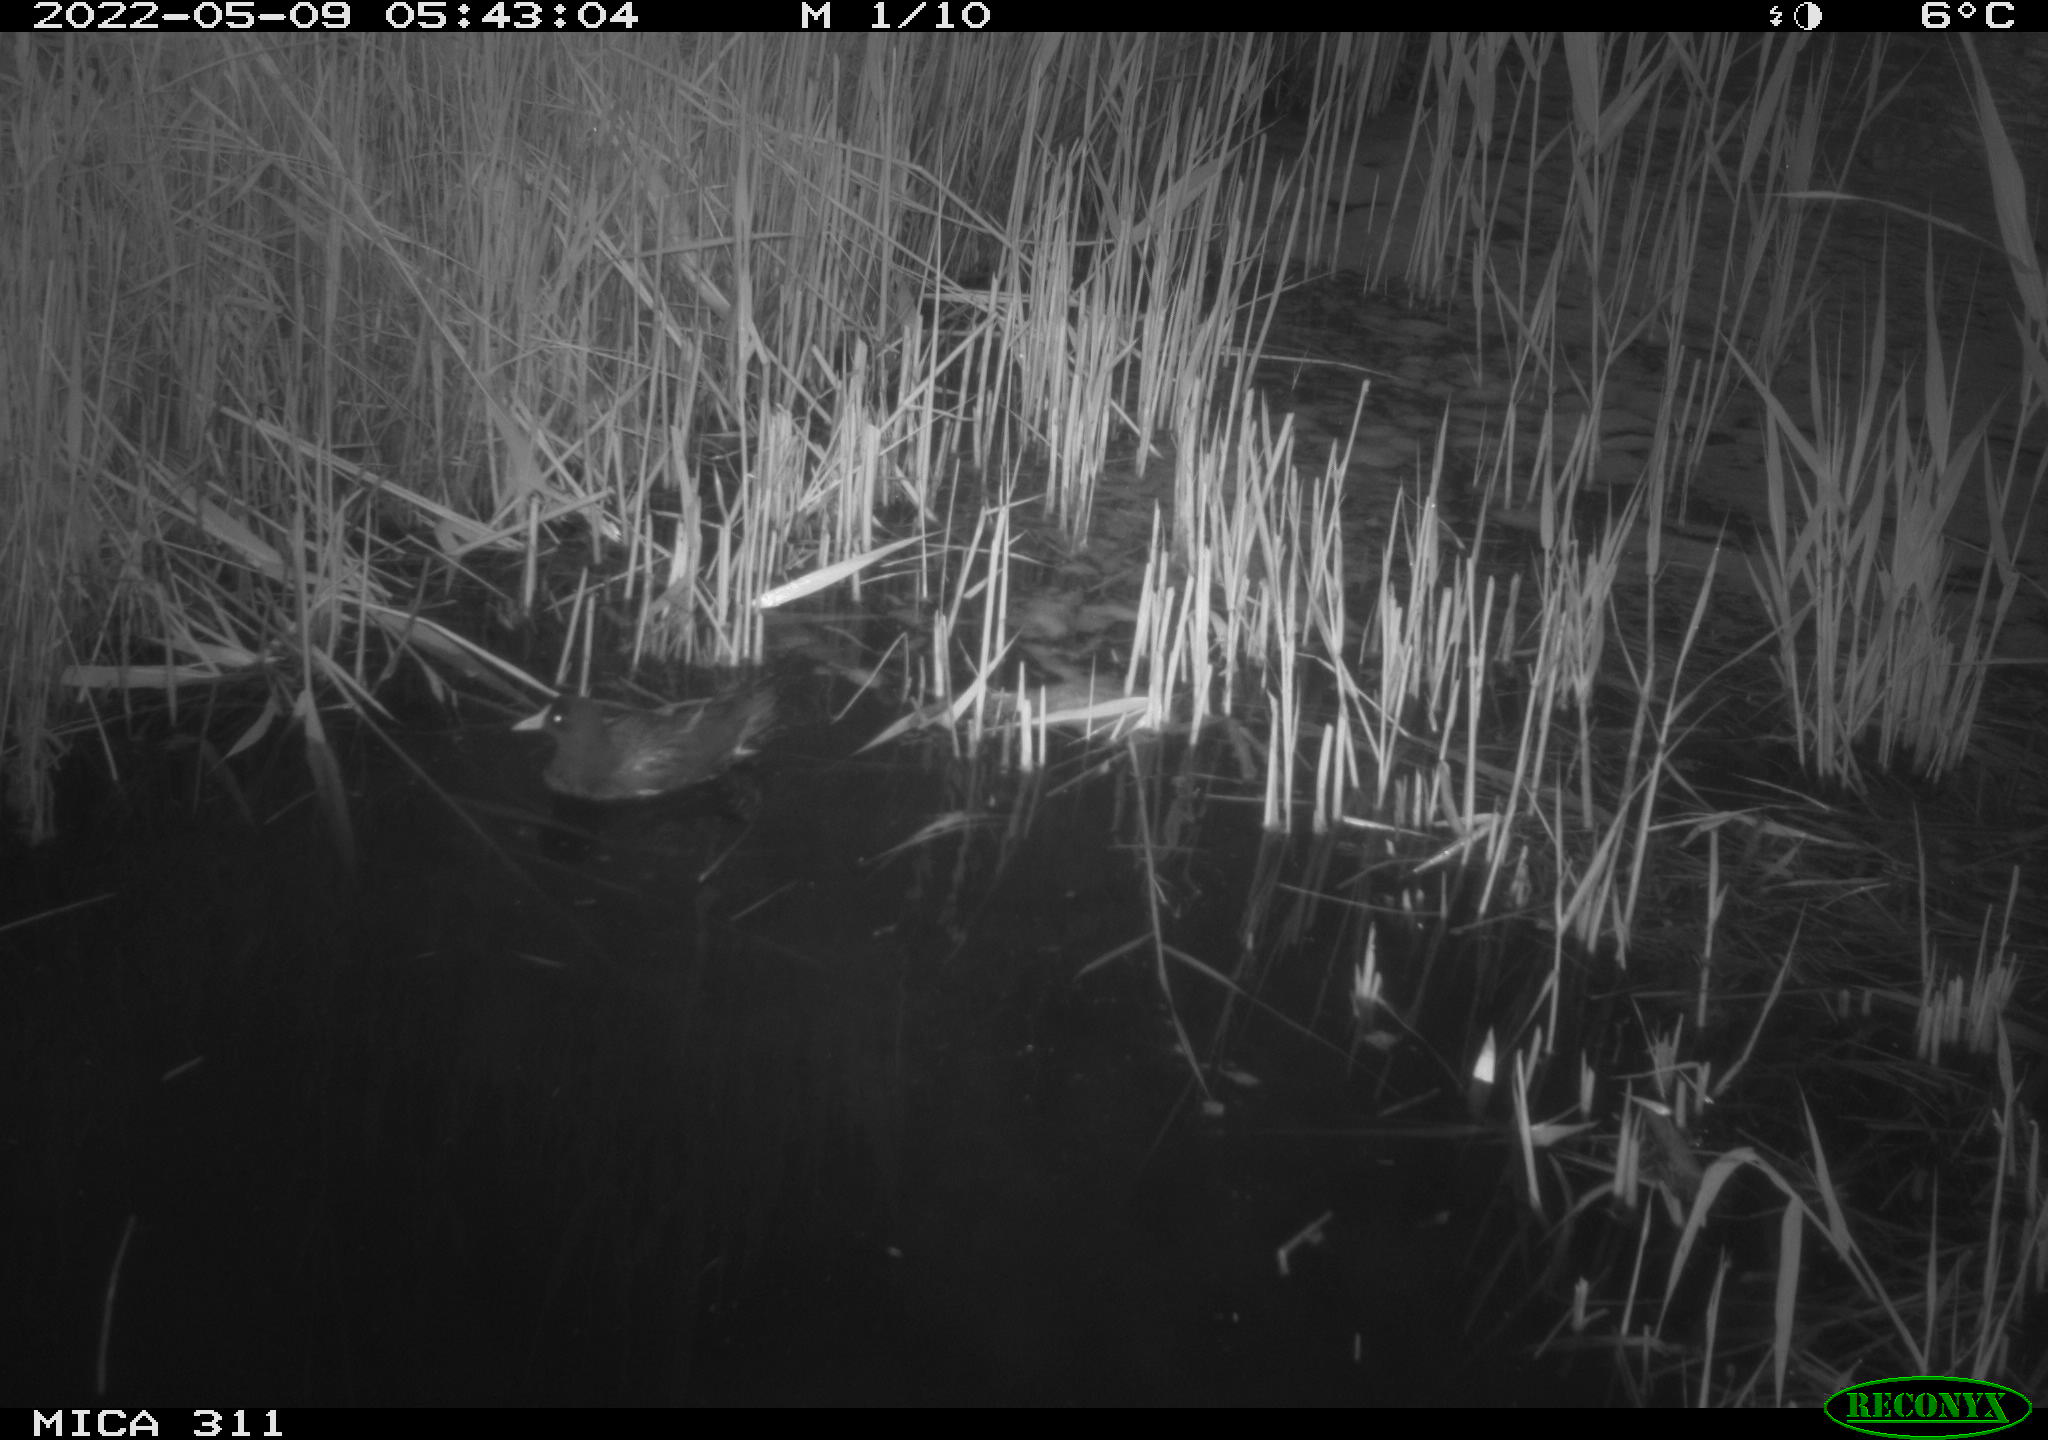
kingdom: Animalia
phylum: Chordata
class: Aves
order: Gruiformes
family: Rallidae
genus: Gallinula
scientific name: Gallinula chloropus
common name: Common moorhen
